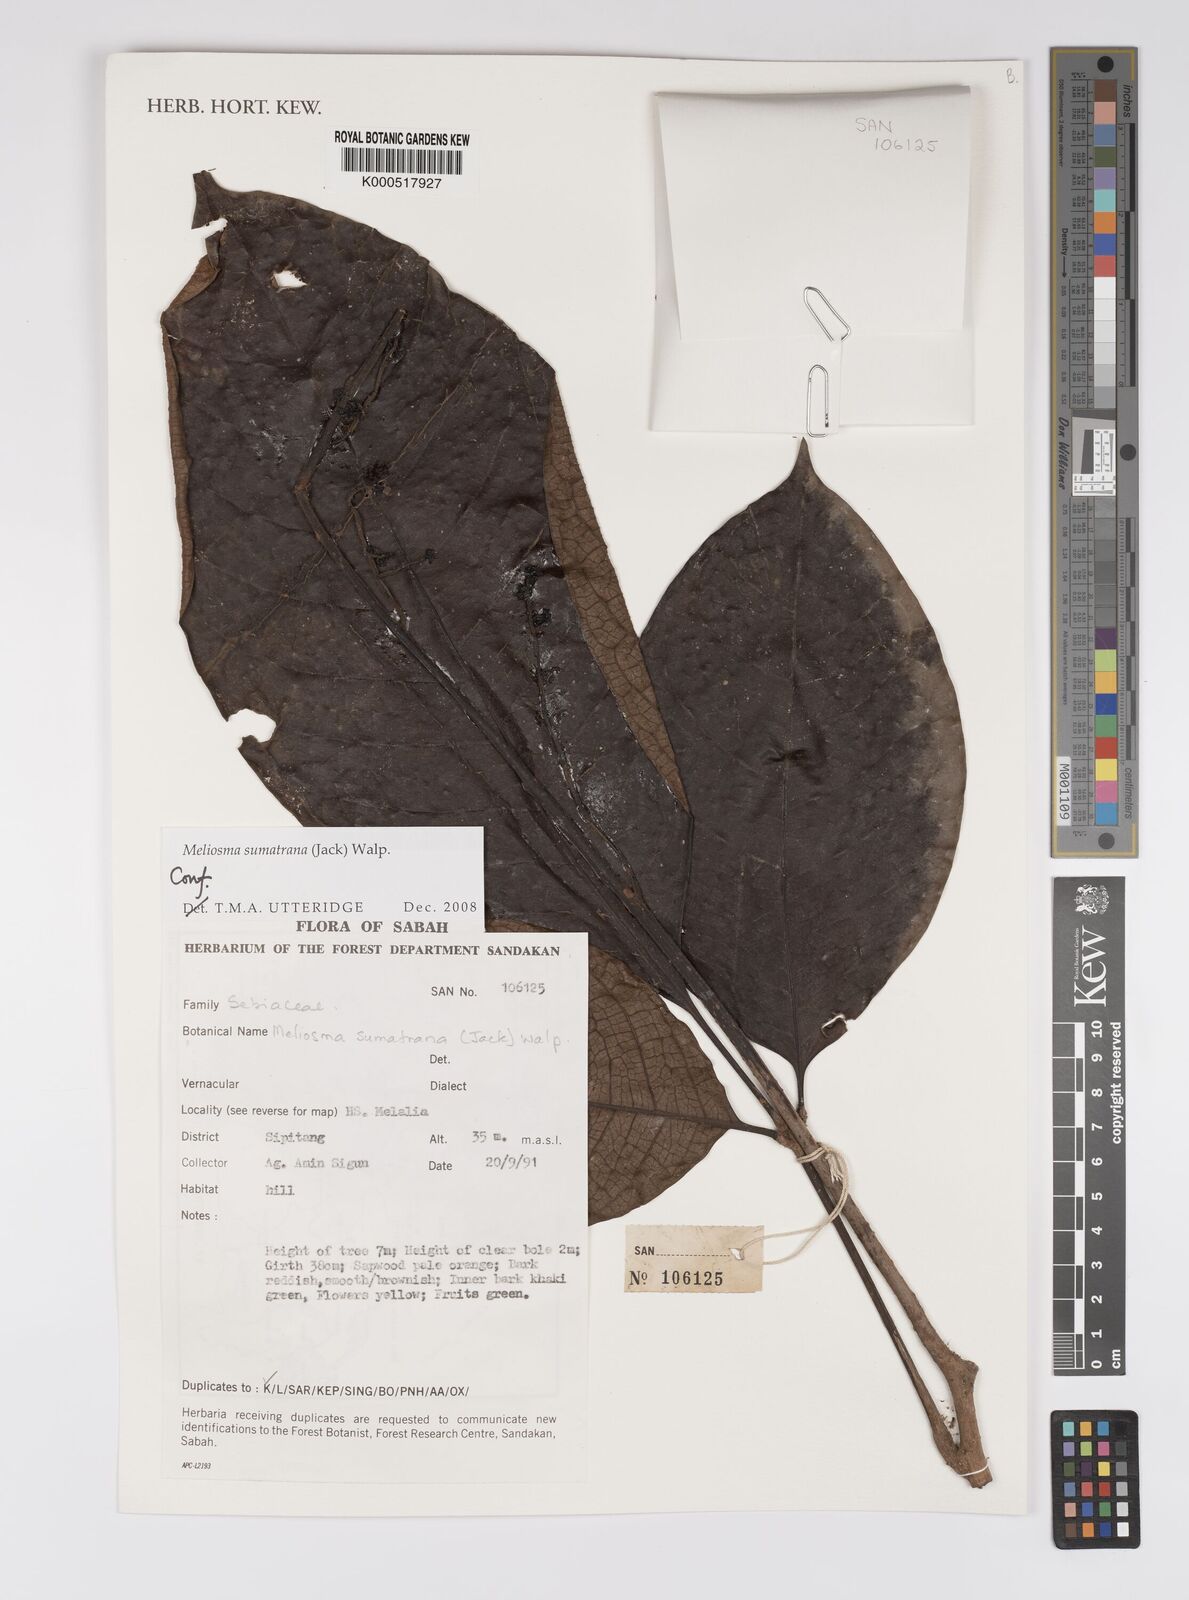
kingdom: Plantae
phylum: Tracheophyta
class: Magnoliopsida
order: Proteales
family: Sabiaceae
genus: Meliosma
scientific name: Meliosma sumatrana
